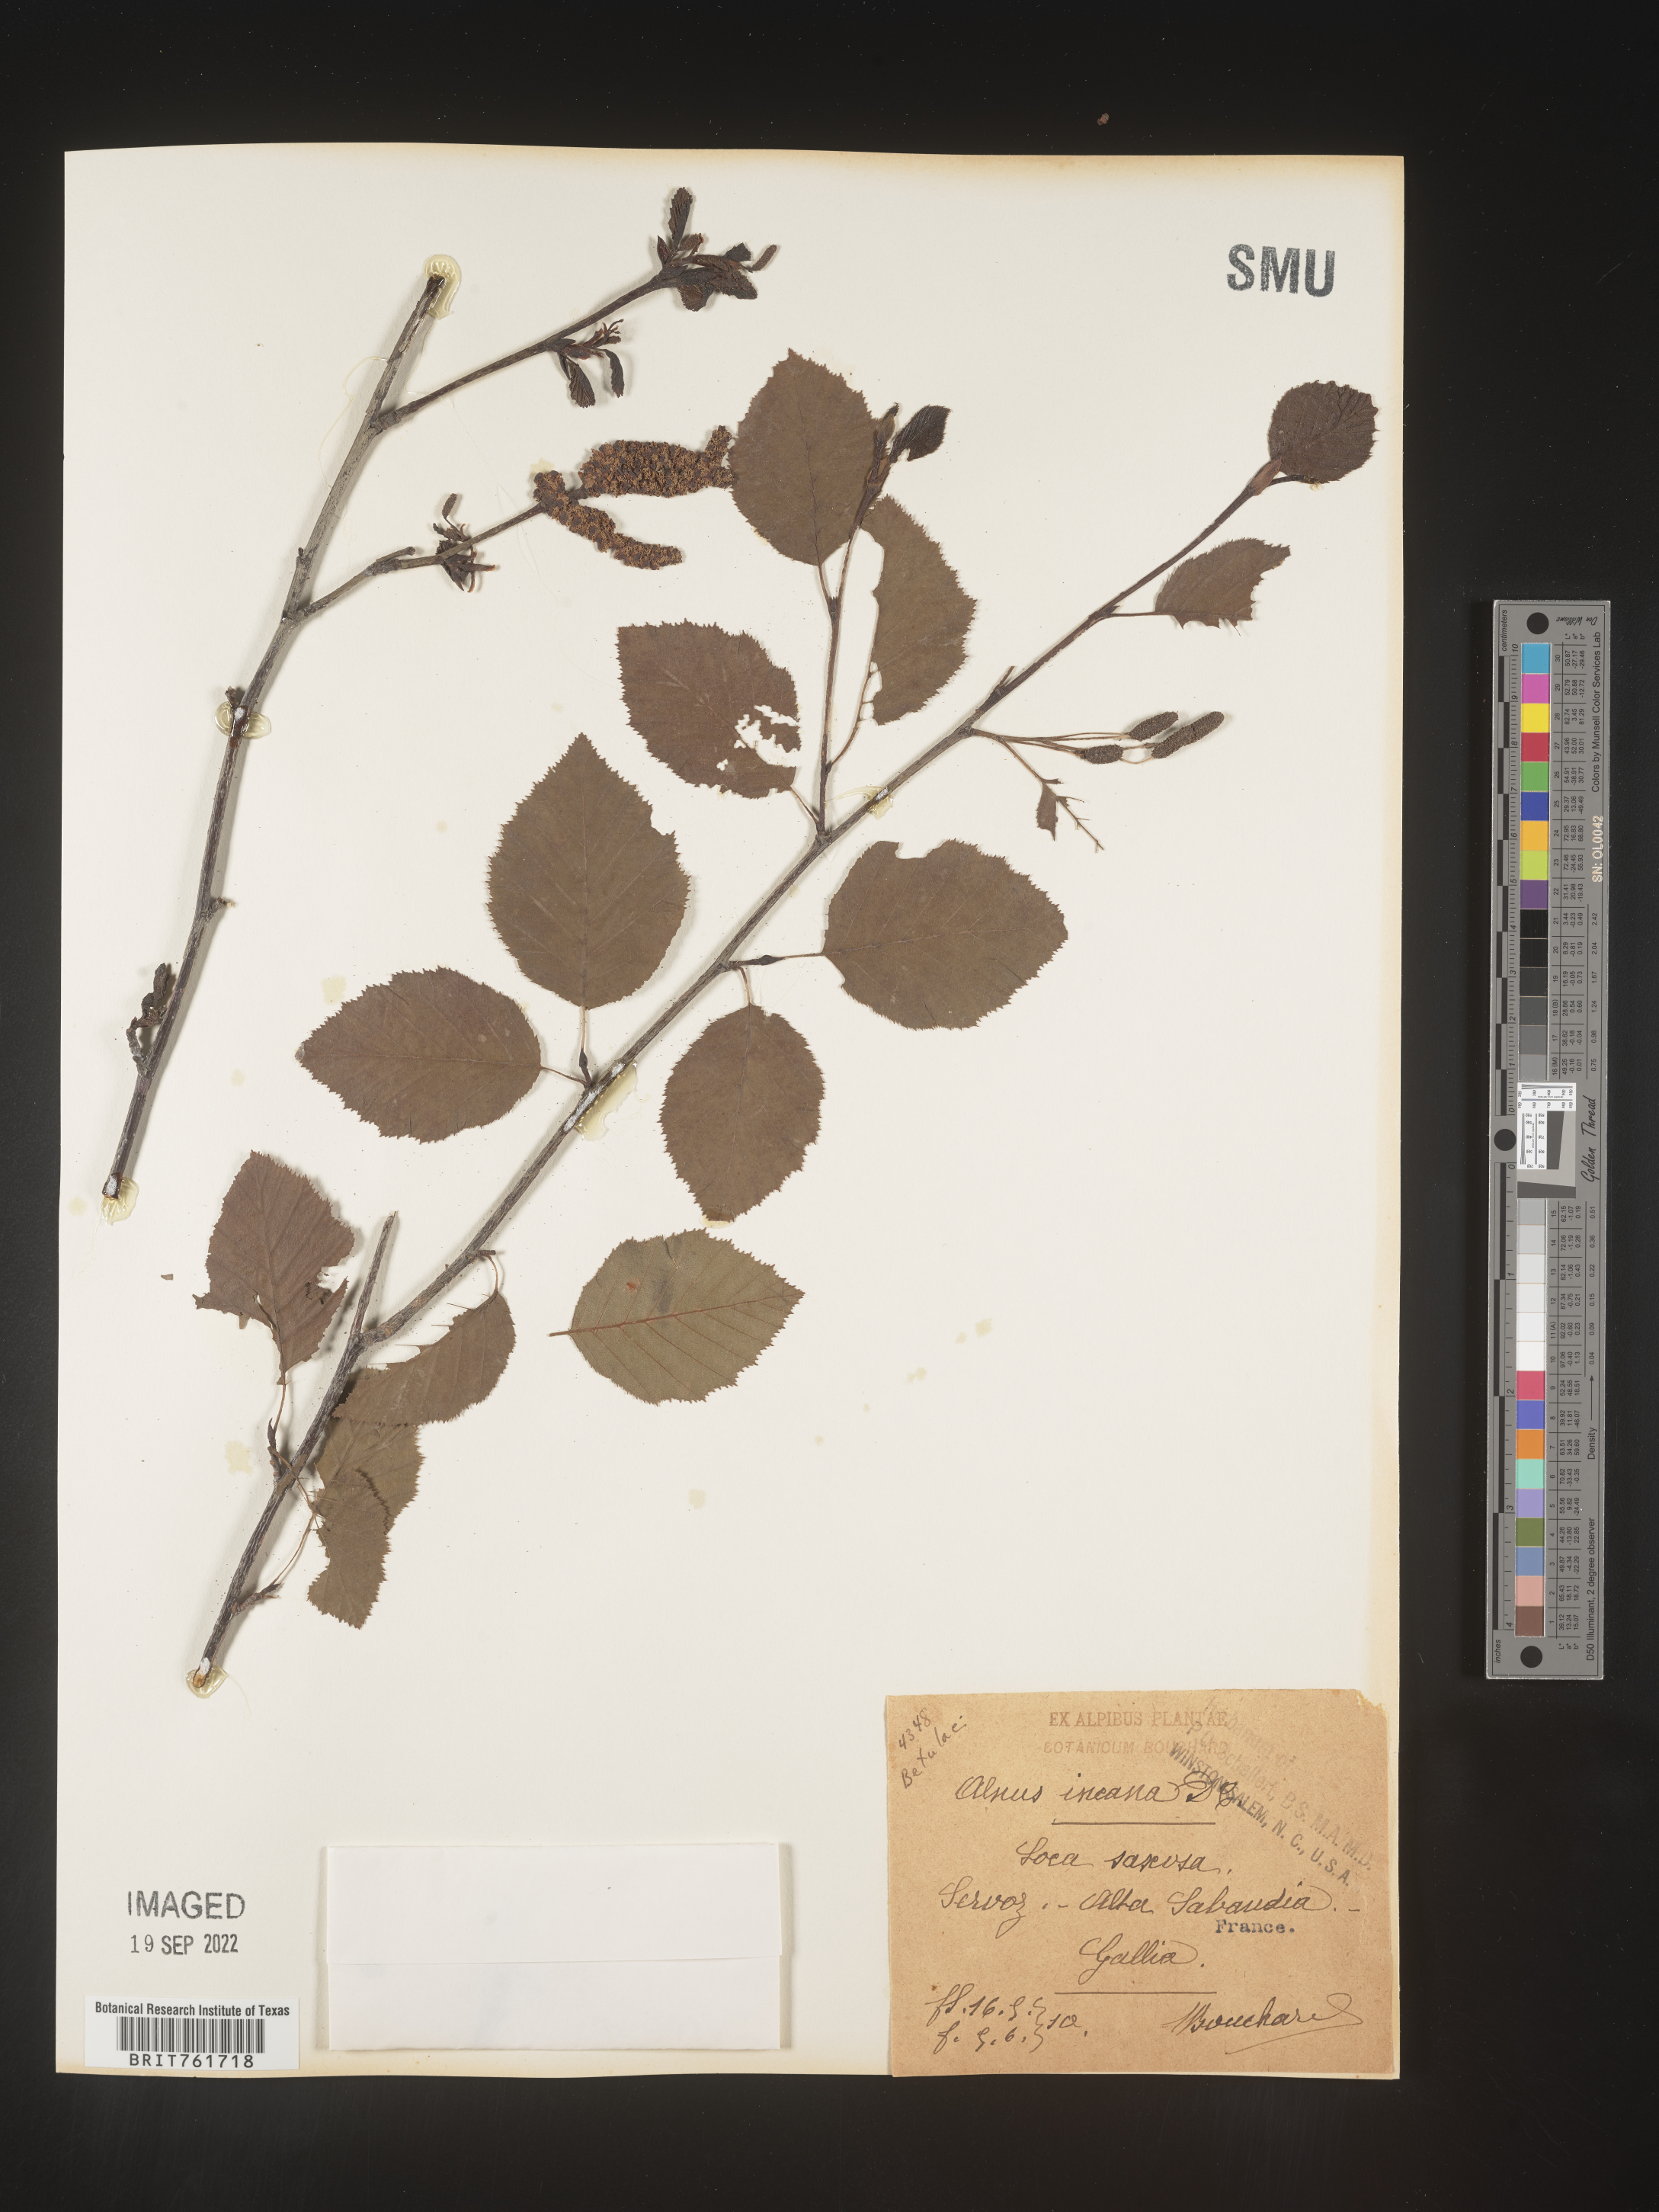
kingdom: Plantae
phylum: Tracheophyta
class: Magnoliopsida
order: Fagales
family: Betulaceae
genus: Alnus
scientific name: Alnus
